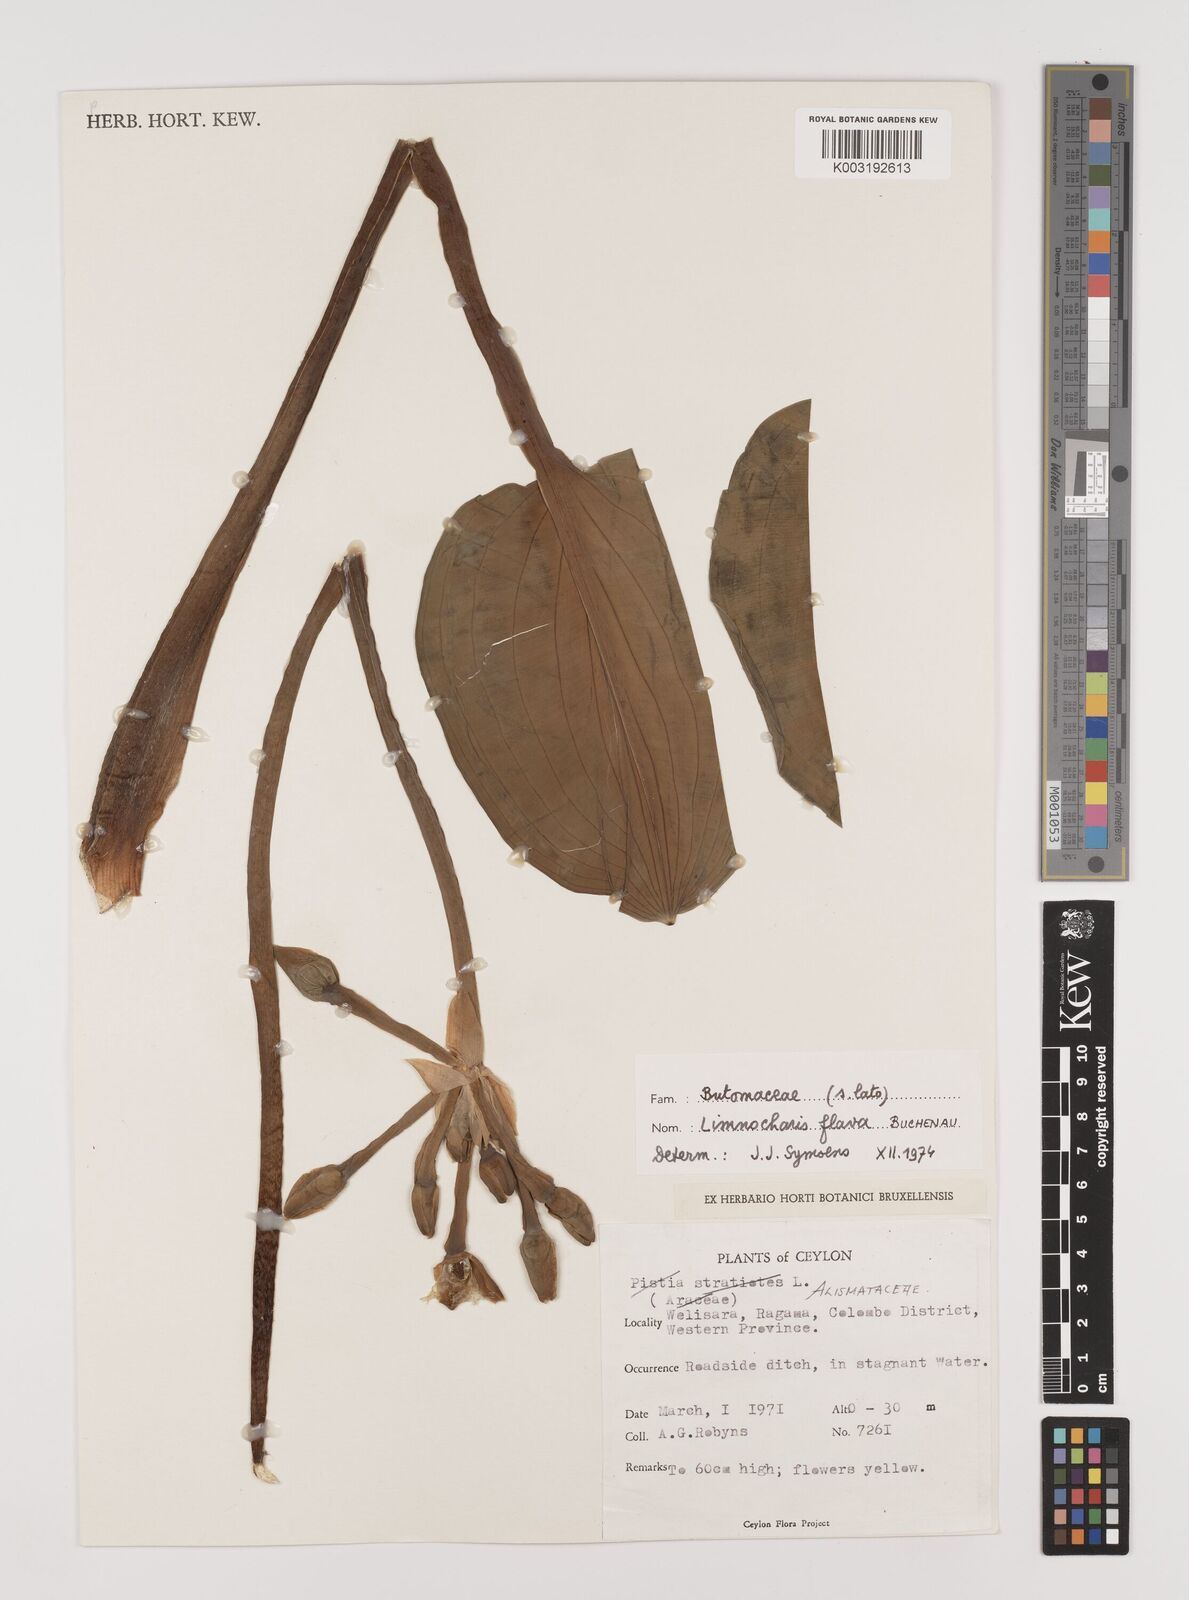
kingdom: Plantae
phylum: Tracheophyta
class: Liliopsida
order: Alismatales
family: Alismataceae
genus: Limnocharis
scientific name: Limnocharis flava
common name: Sawah-flower-rush
